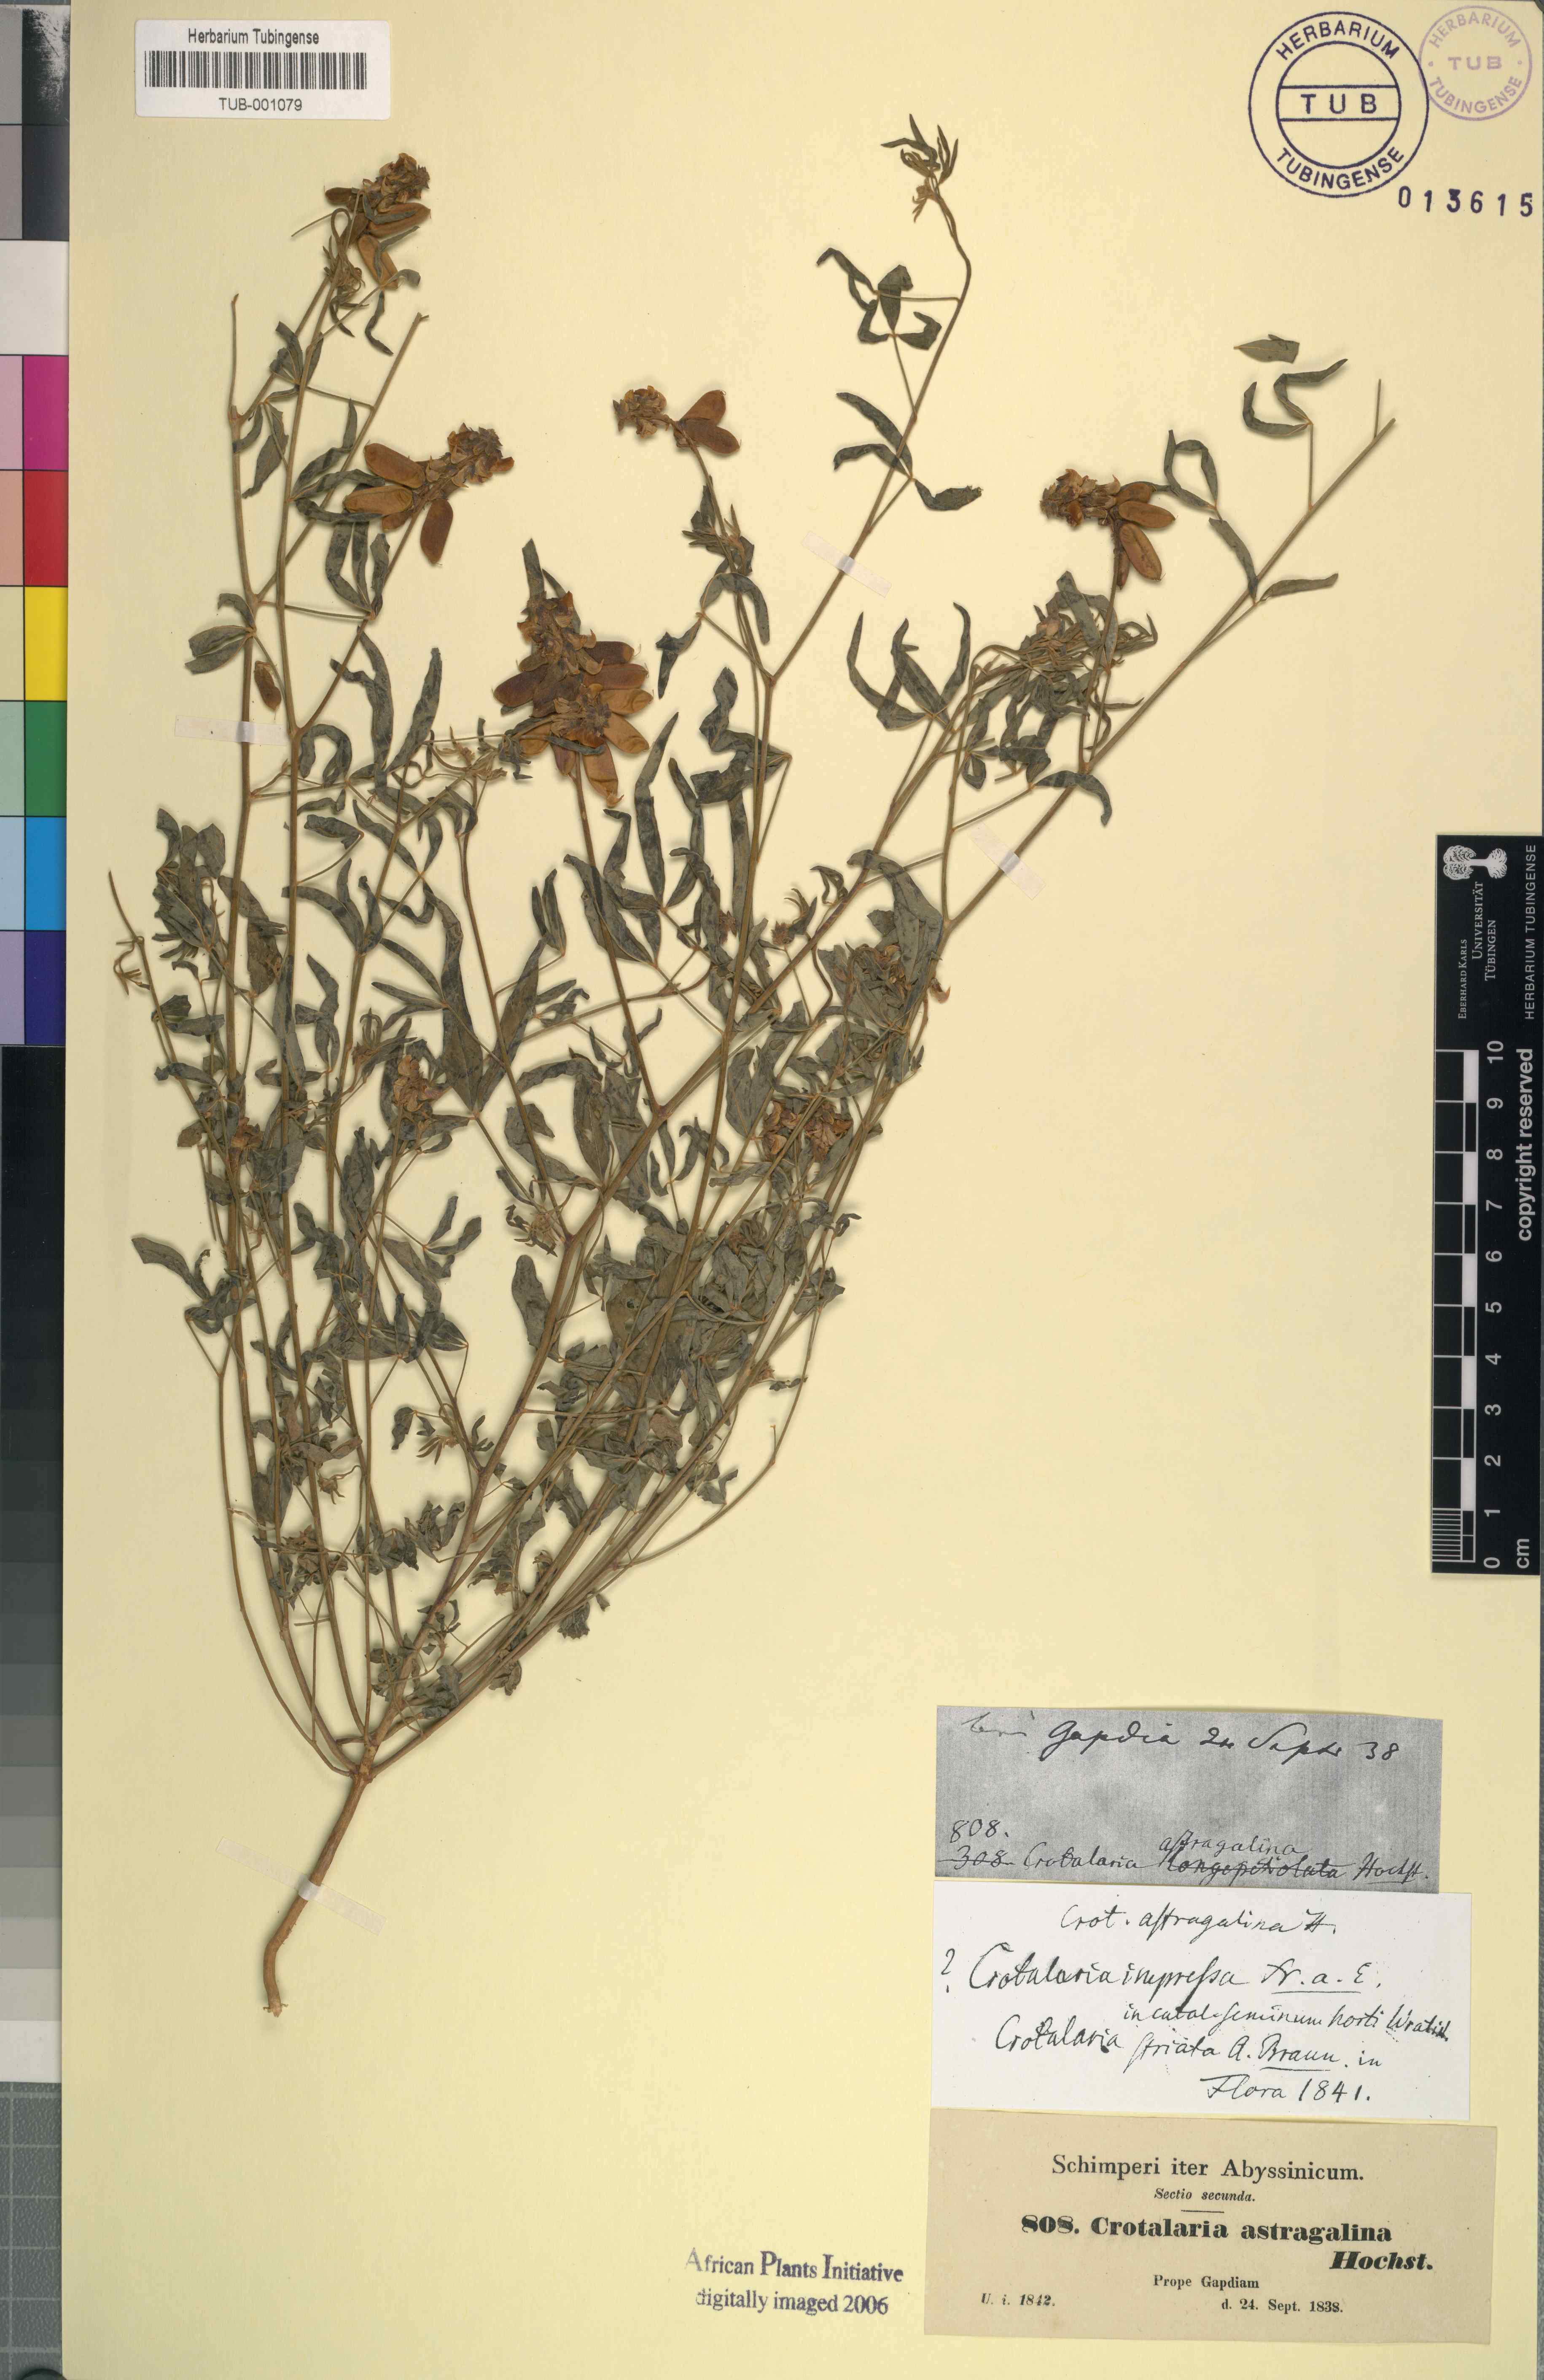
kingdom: Plantae
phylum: Tracheophyta
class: Magnoliopsida
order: Fabales
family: Fabaceae
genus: Crotalaria
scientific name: Crotalaria impressa
